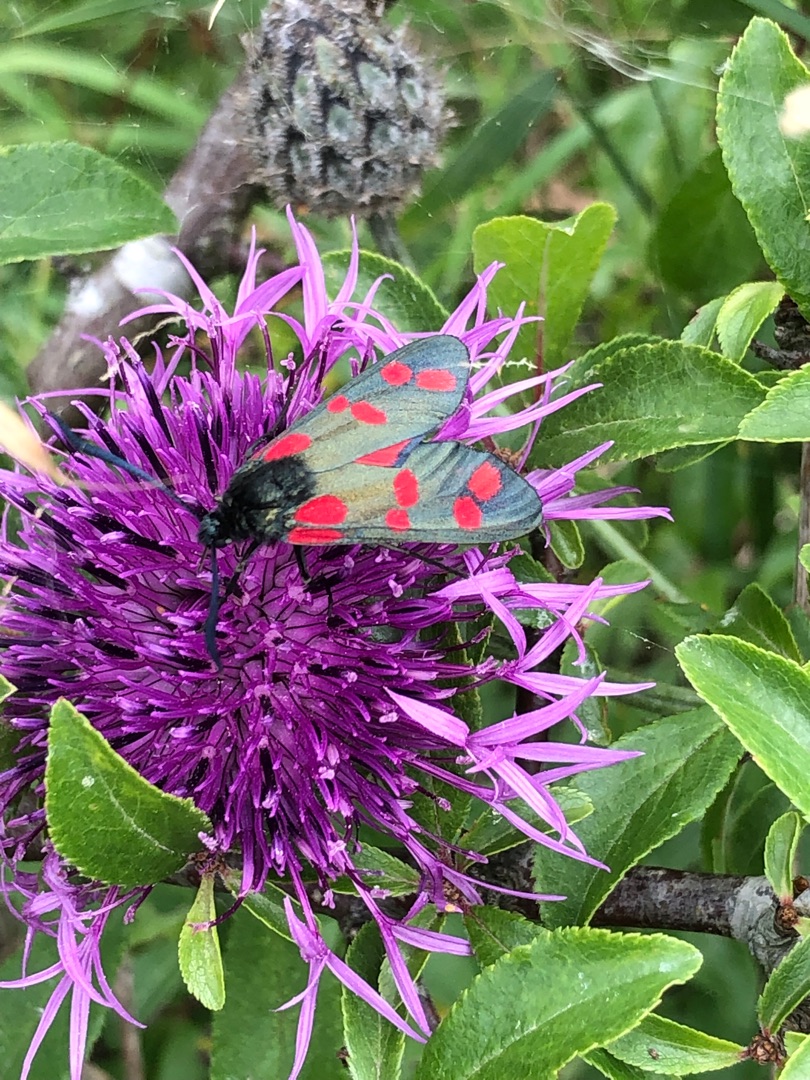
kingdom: Animalia
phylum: Arthropoda
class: Insecta
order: Lepidoptera
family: Zygaenidae
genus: Zygaena
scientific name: Zygaena filipendulae
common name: Seksplettet køllesværmer
